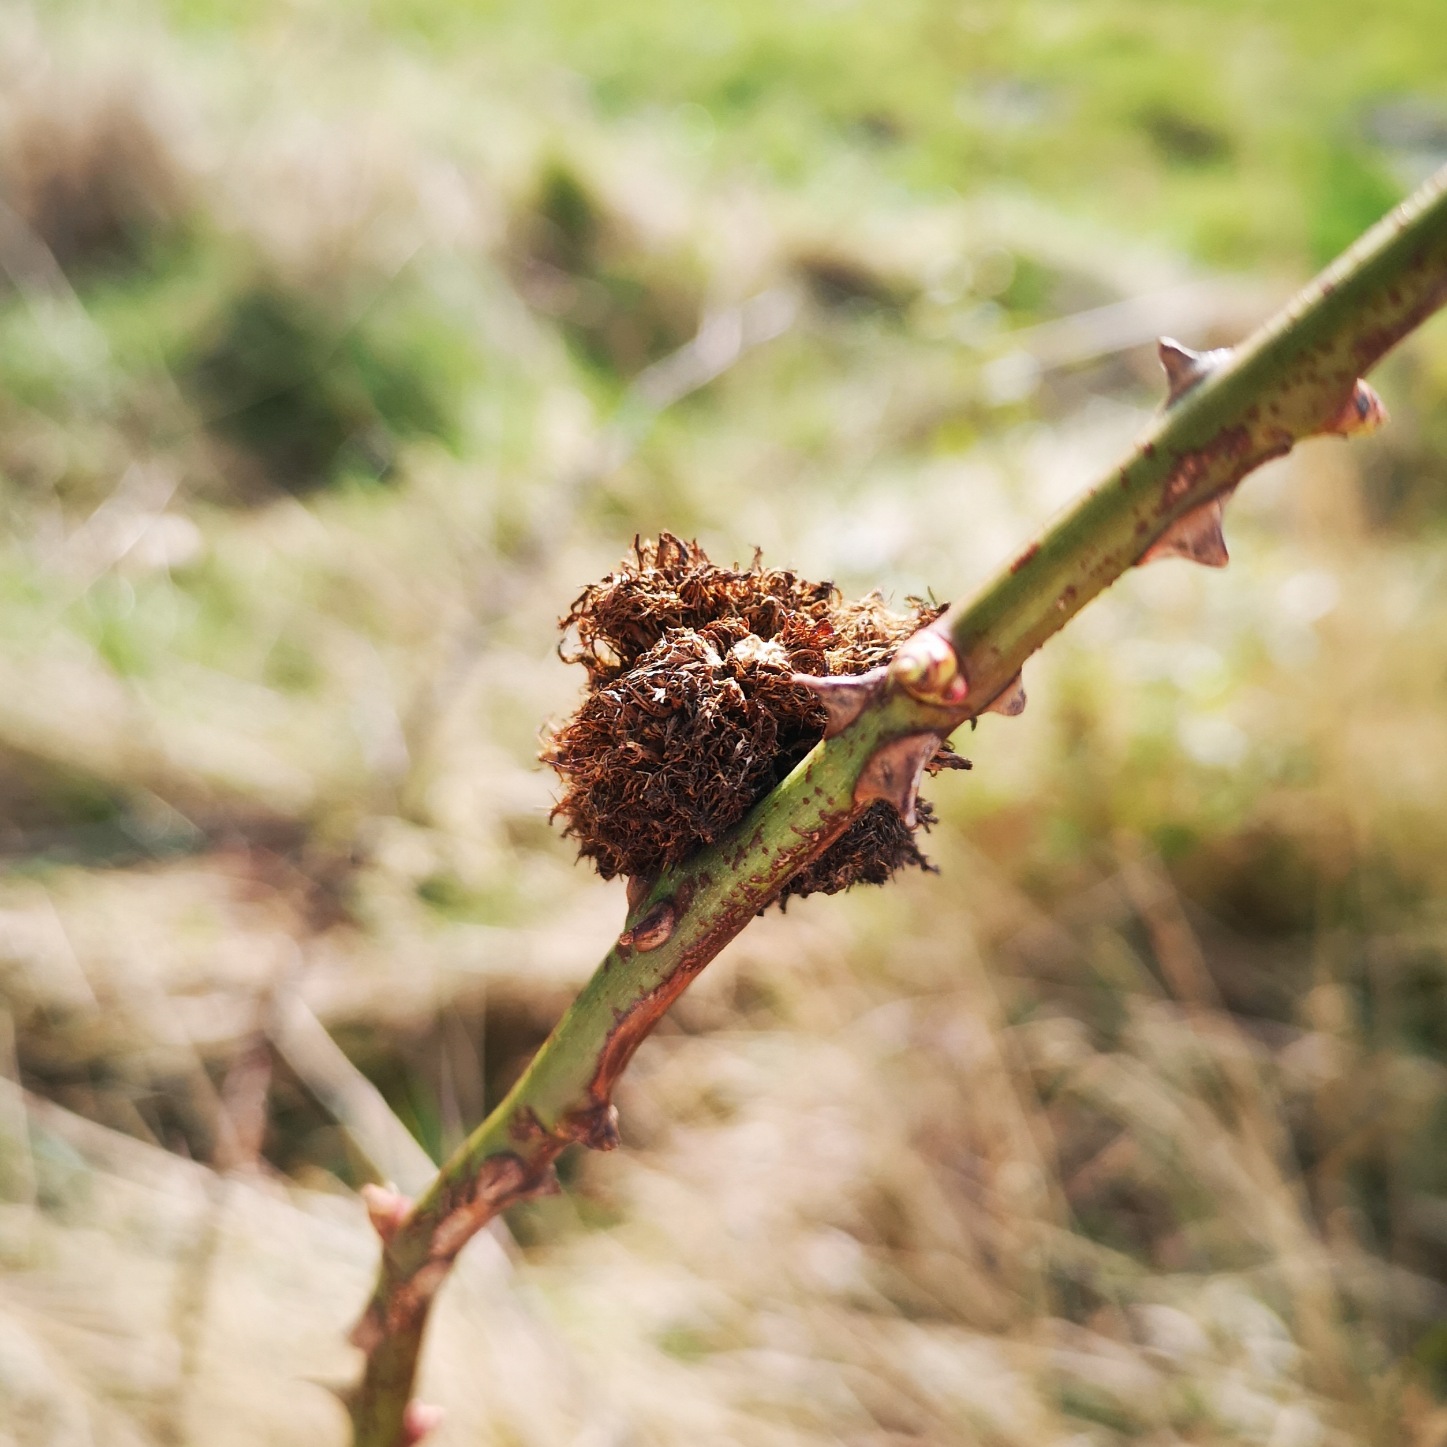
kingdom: Animalia
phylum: Arthropoda
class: Insecta
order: Hymenoptera
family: Cynipidae
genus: Diplolepis
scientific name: Diplolepis rosae
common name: Bedeguargalhveps
